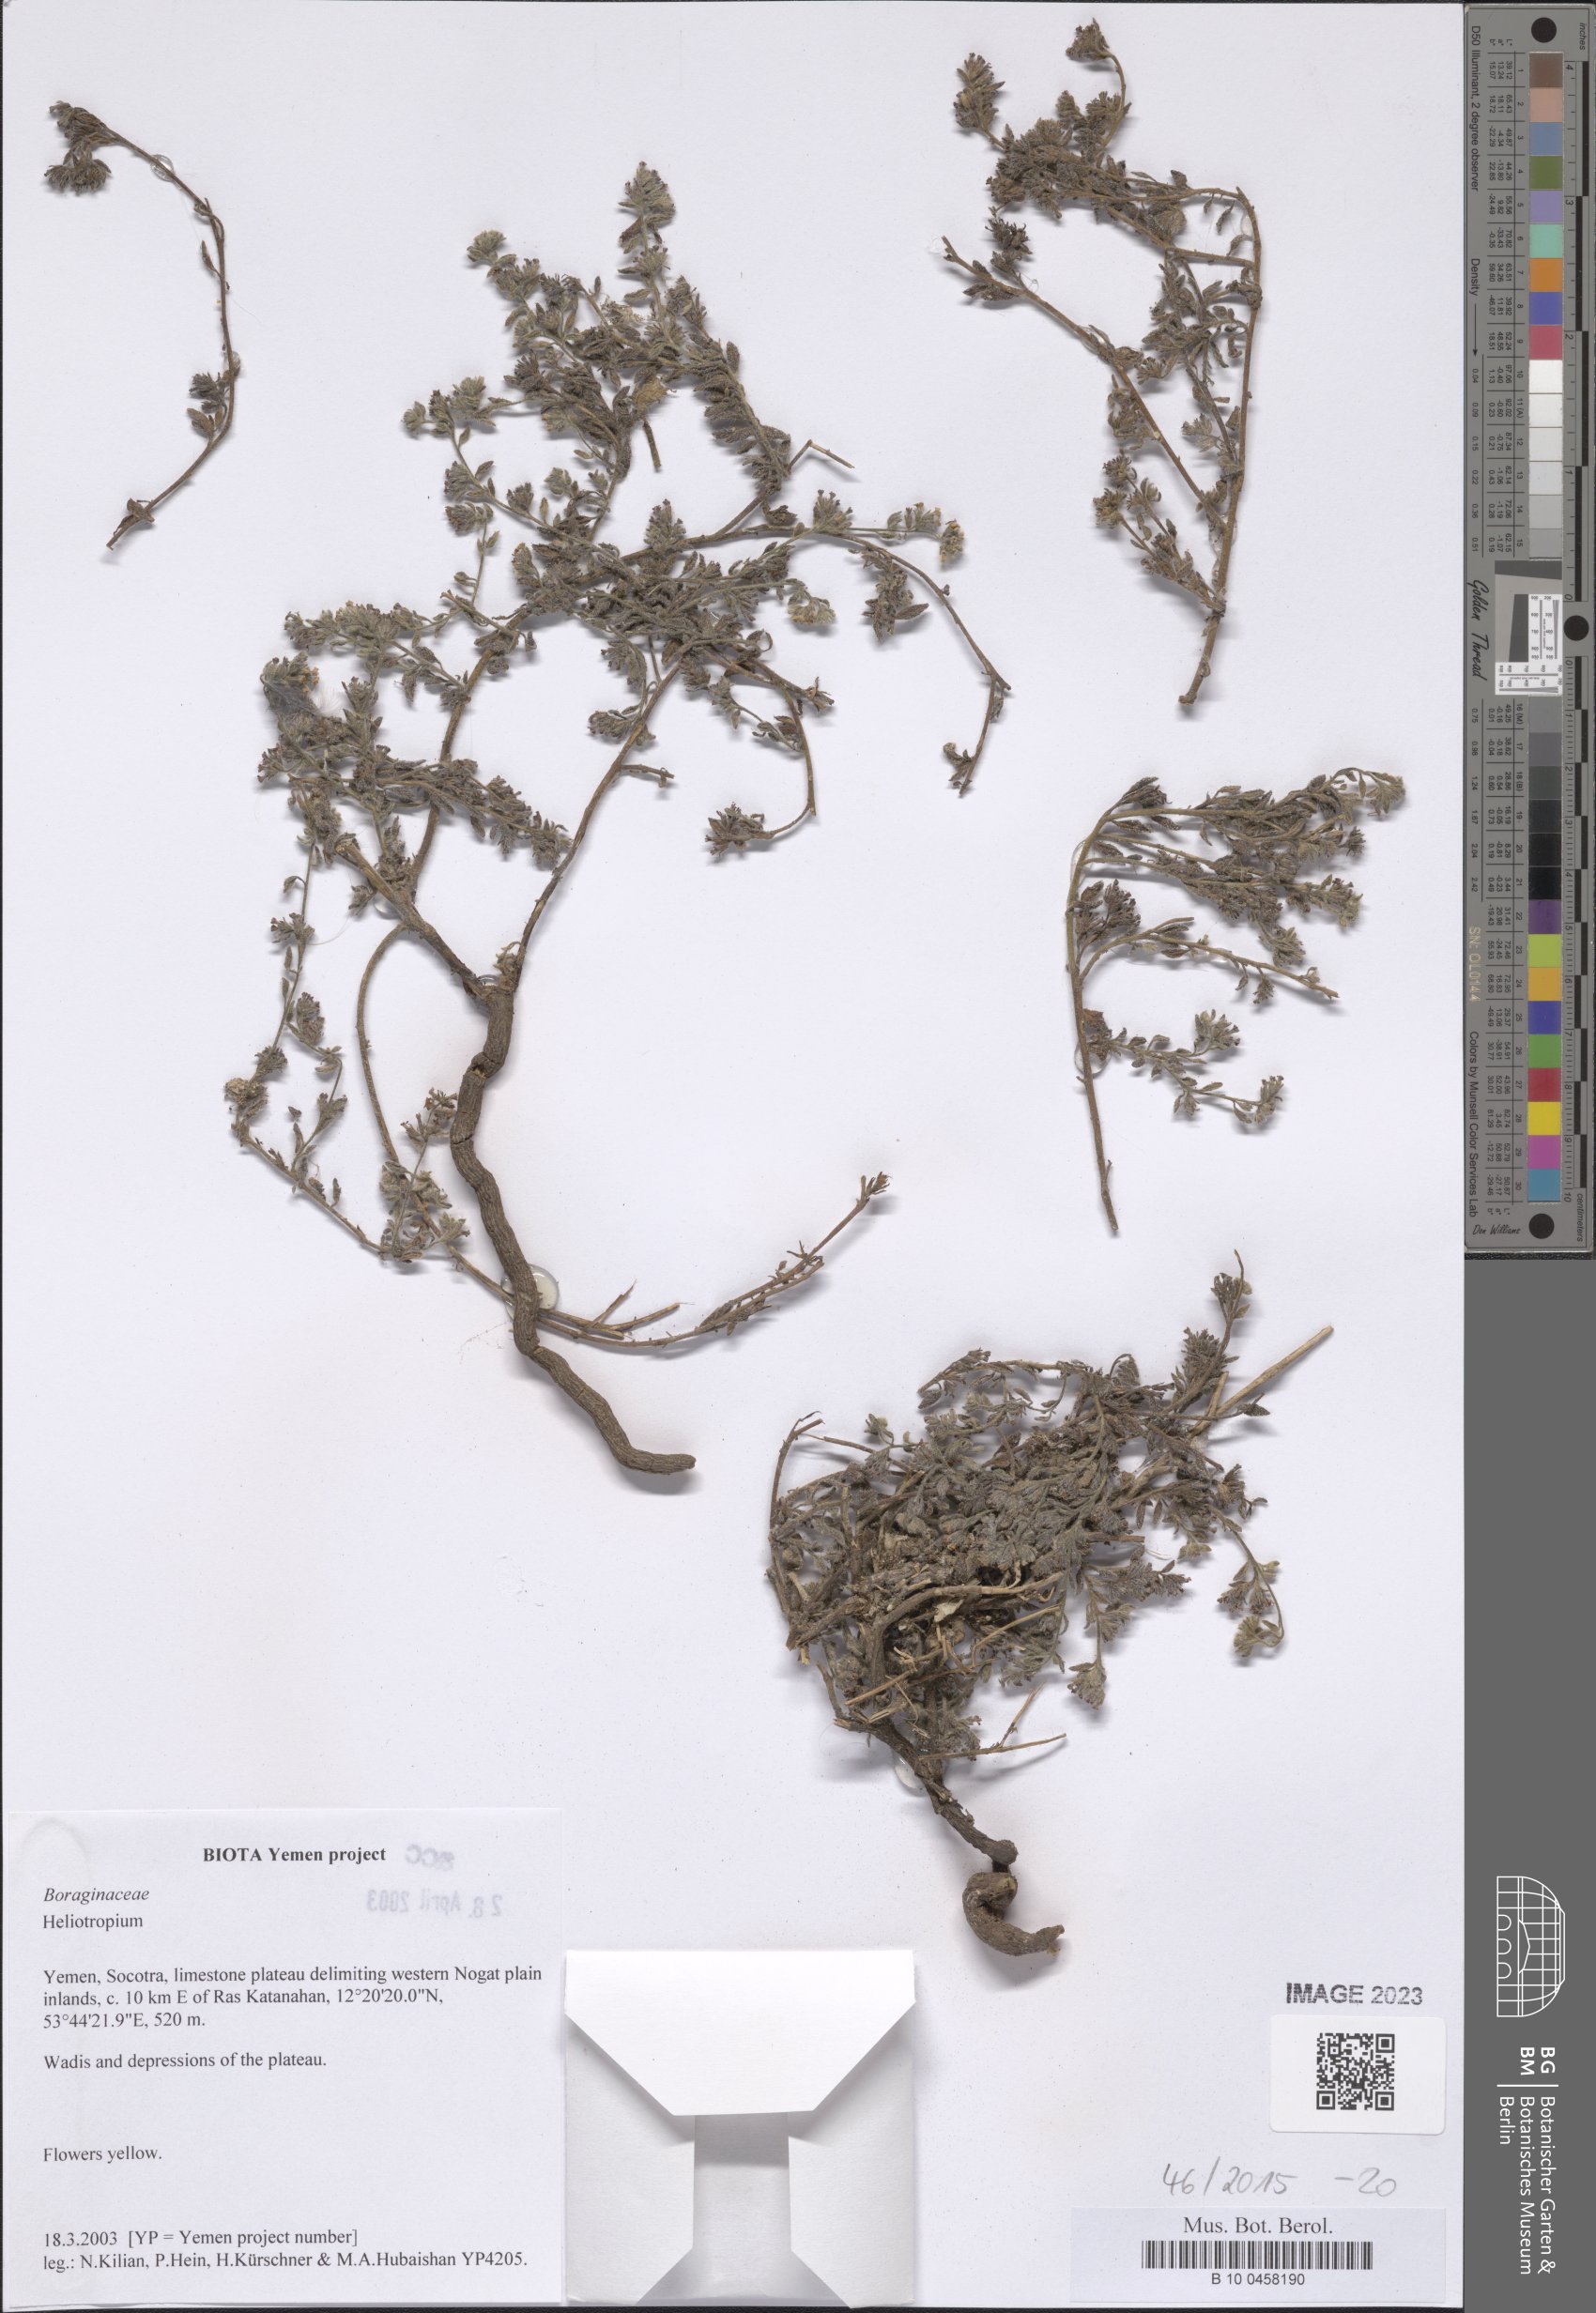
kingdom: Plantae
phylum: Tracheophyta
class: Magnoliopsida
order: Boraginales
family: Heliotropiaceae
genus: Heliotropium
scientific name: Heliotropium
